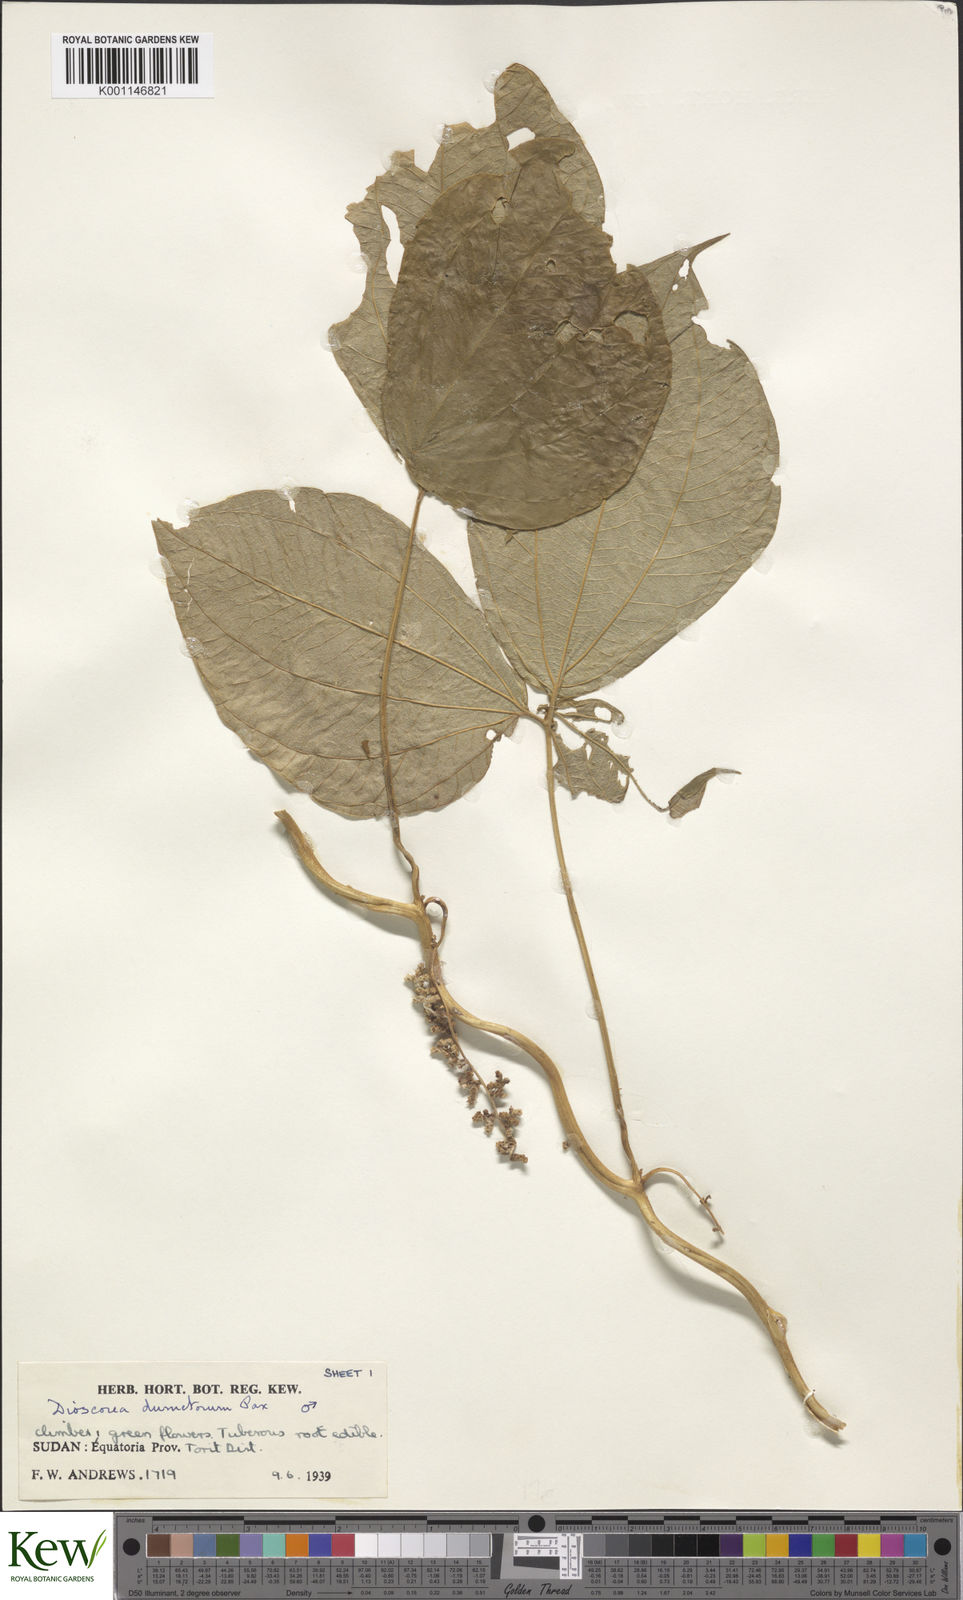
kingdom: Plantae
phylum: Tracheophyta
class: Liliopsida
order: Dioscoreales
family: Dioscoreaceae
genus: Dioscorea
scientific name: Dioscorea dumetorum
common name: African bitter yam
